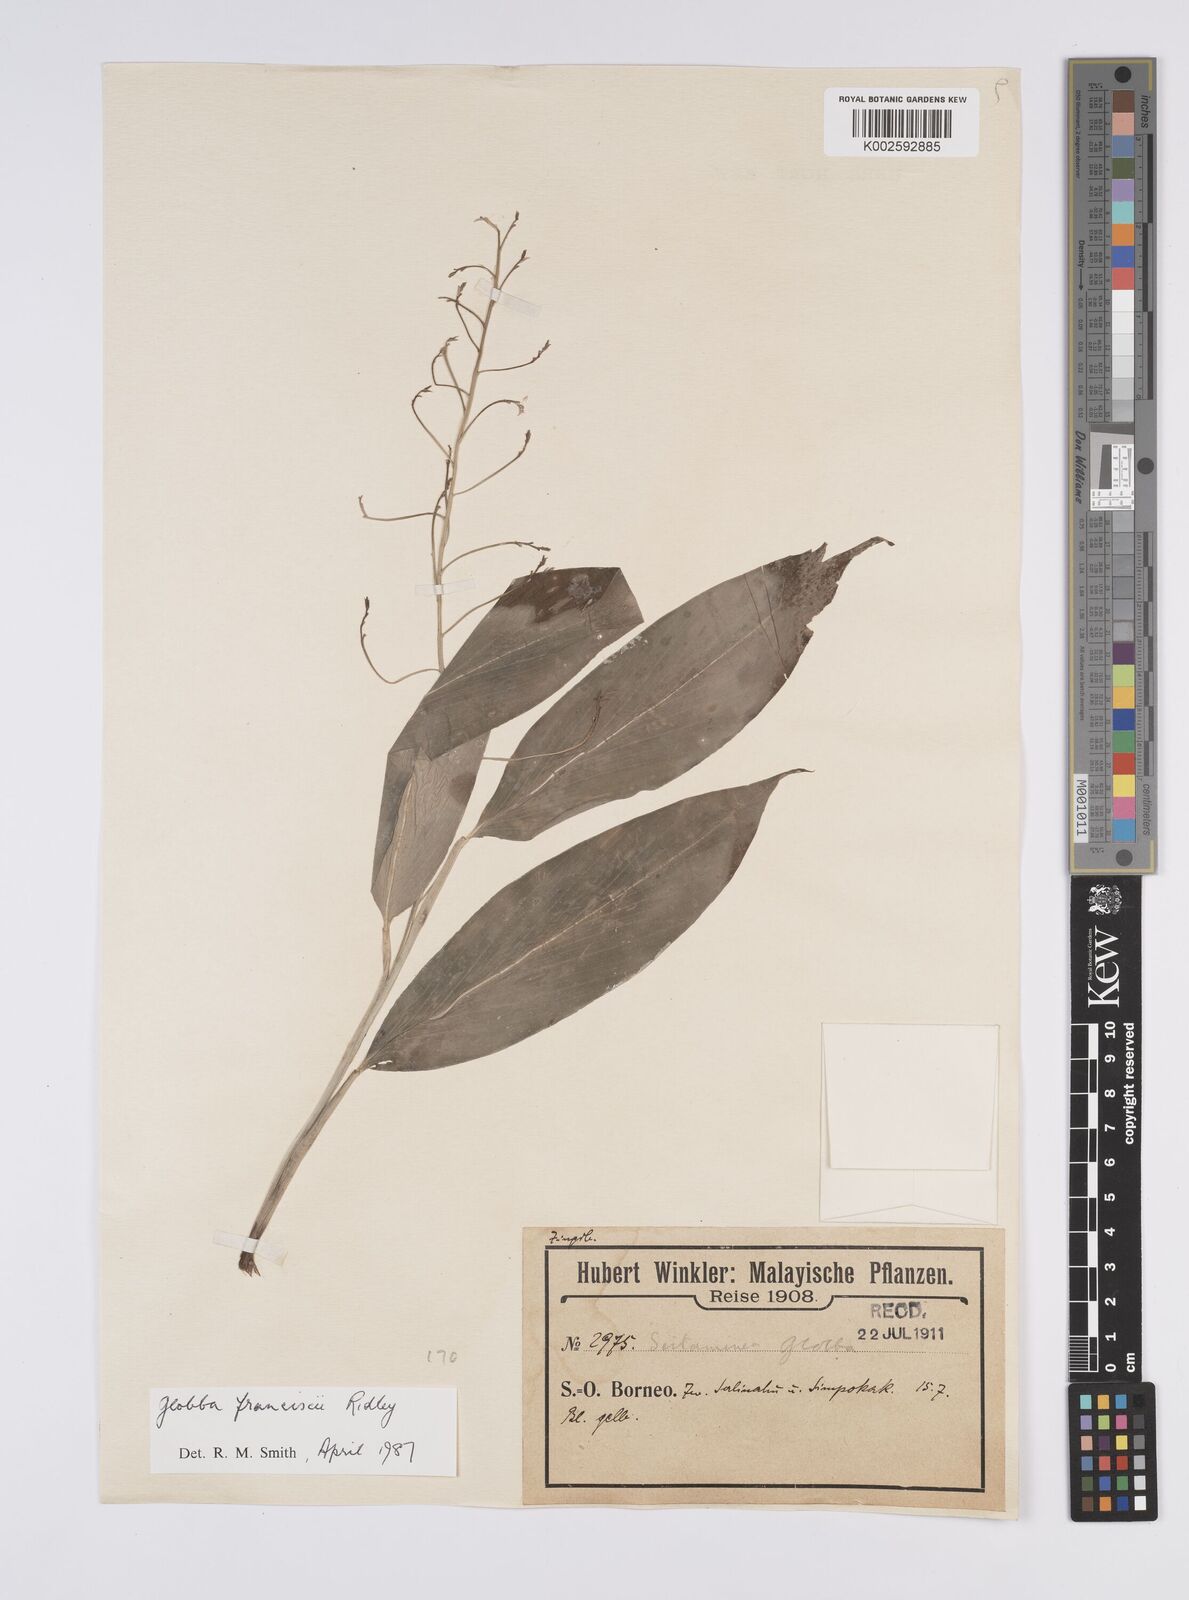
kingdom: Plantae
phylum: Tracheophyta
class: Liliopsida
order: Zingiberales
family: Zingiberaceae
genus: Globba
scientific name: Globba francisci
